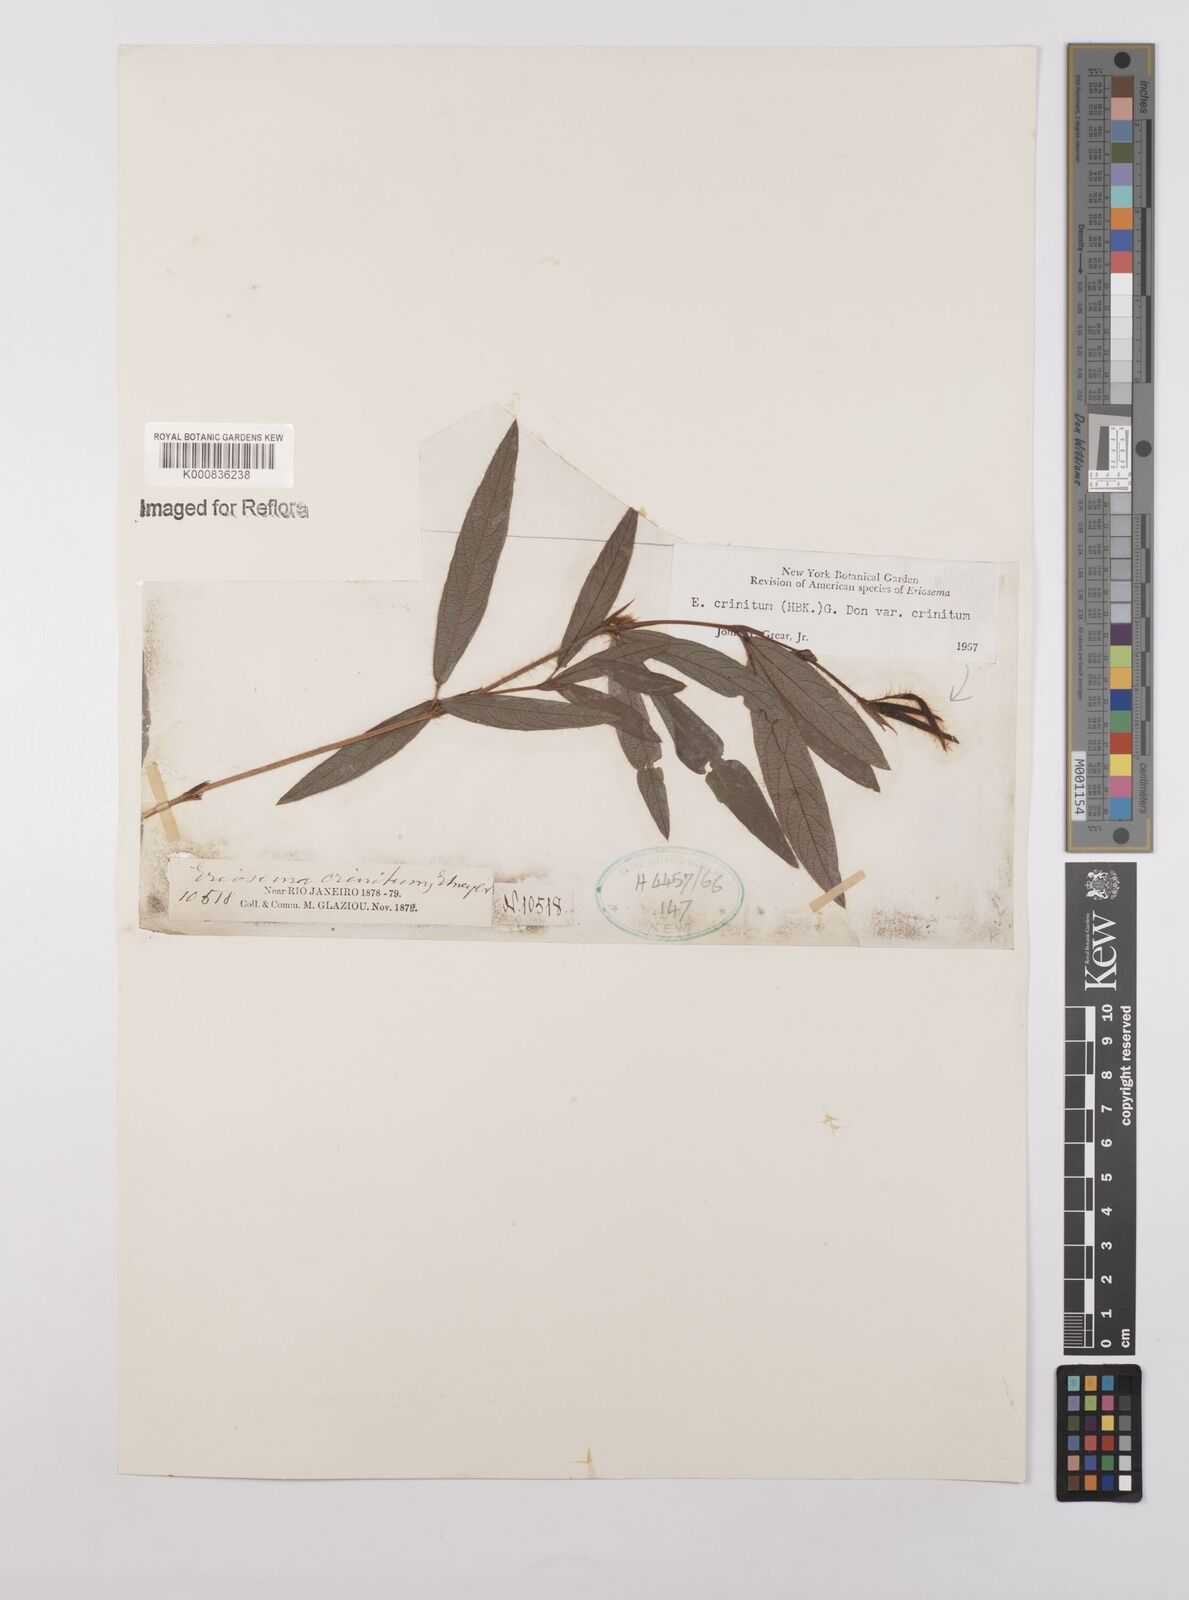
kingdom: Plantae
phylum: Tracheophyta
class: Magnoliopsida
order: Fabales
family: Fabaceae
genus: Eriosema
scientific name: Eriosema crinitum
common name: Sand pea
